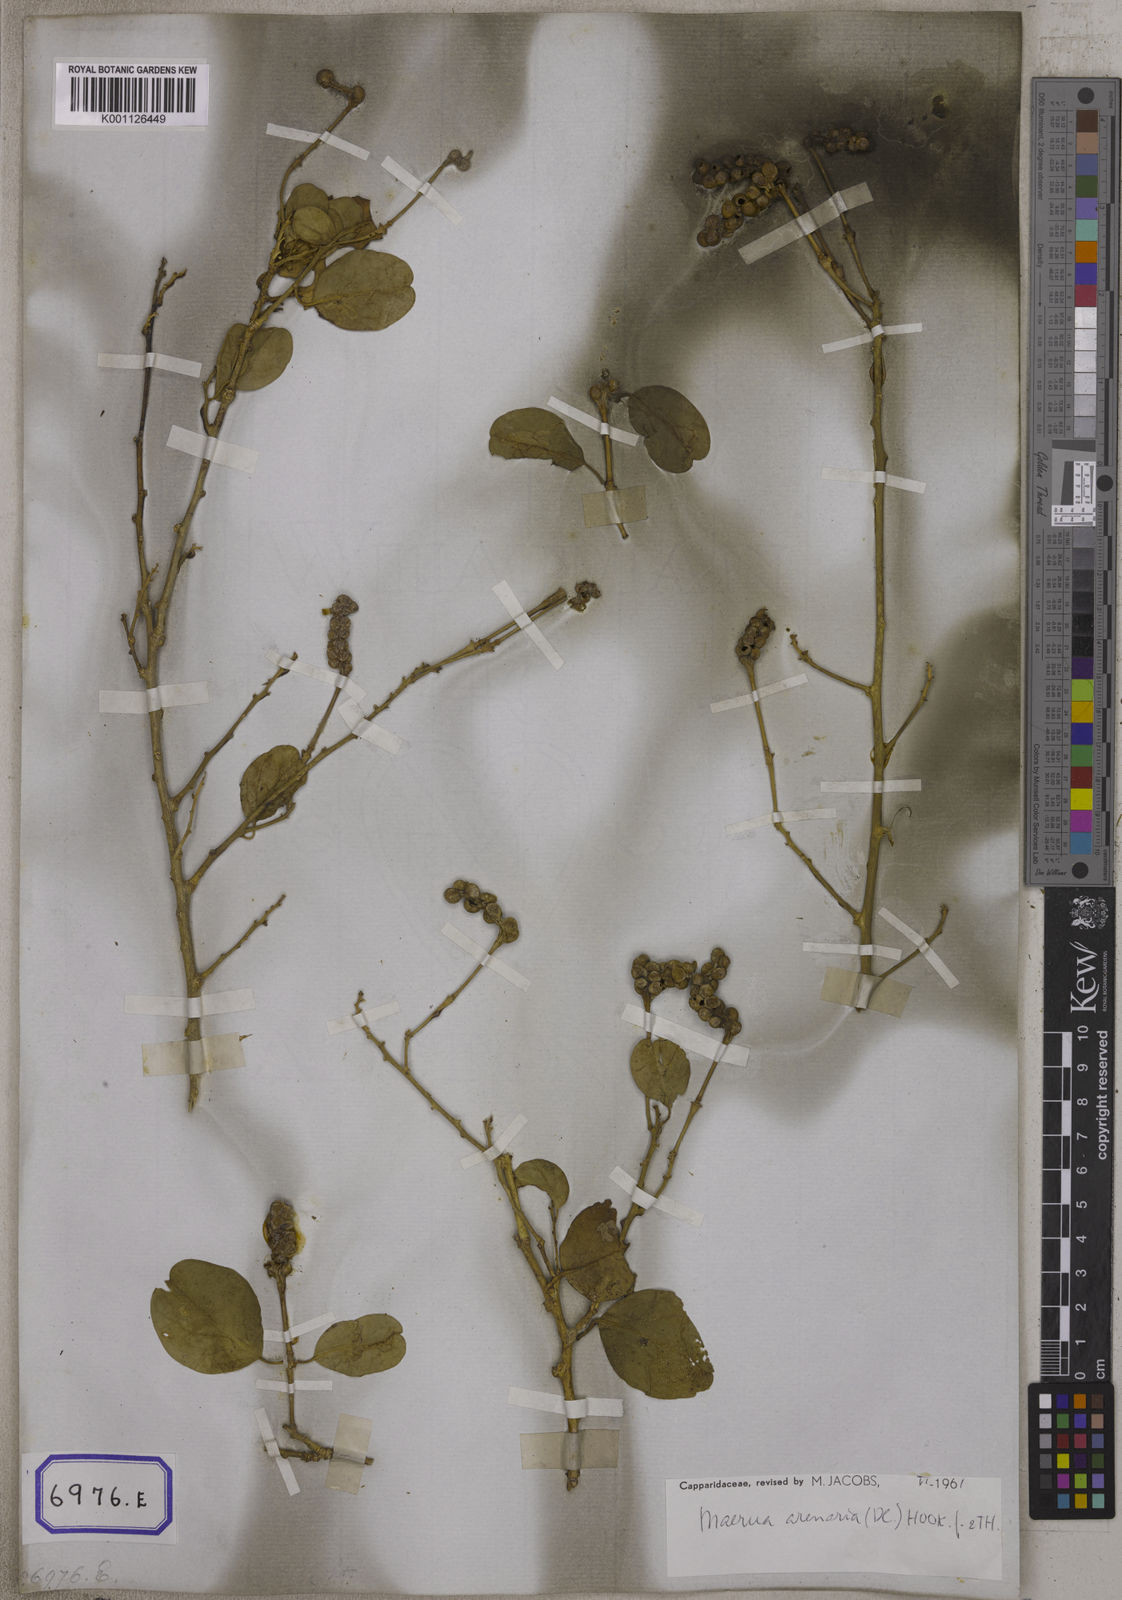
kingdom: Plantae
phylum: Tracheophyta
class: Magnoliopsida
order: Brassicales
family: Capparaceae
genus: Maerua
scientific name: Maerua oblongifolia
